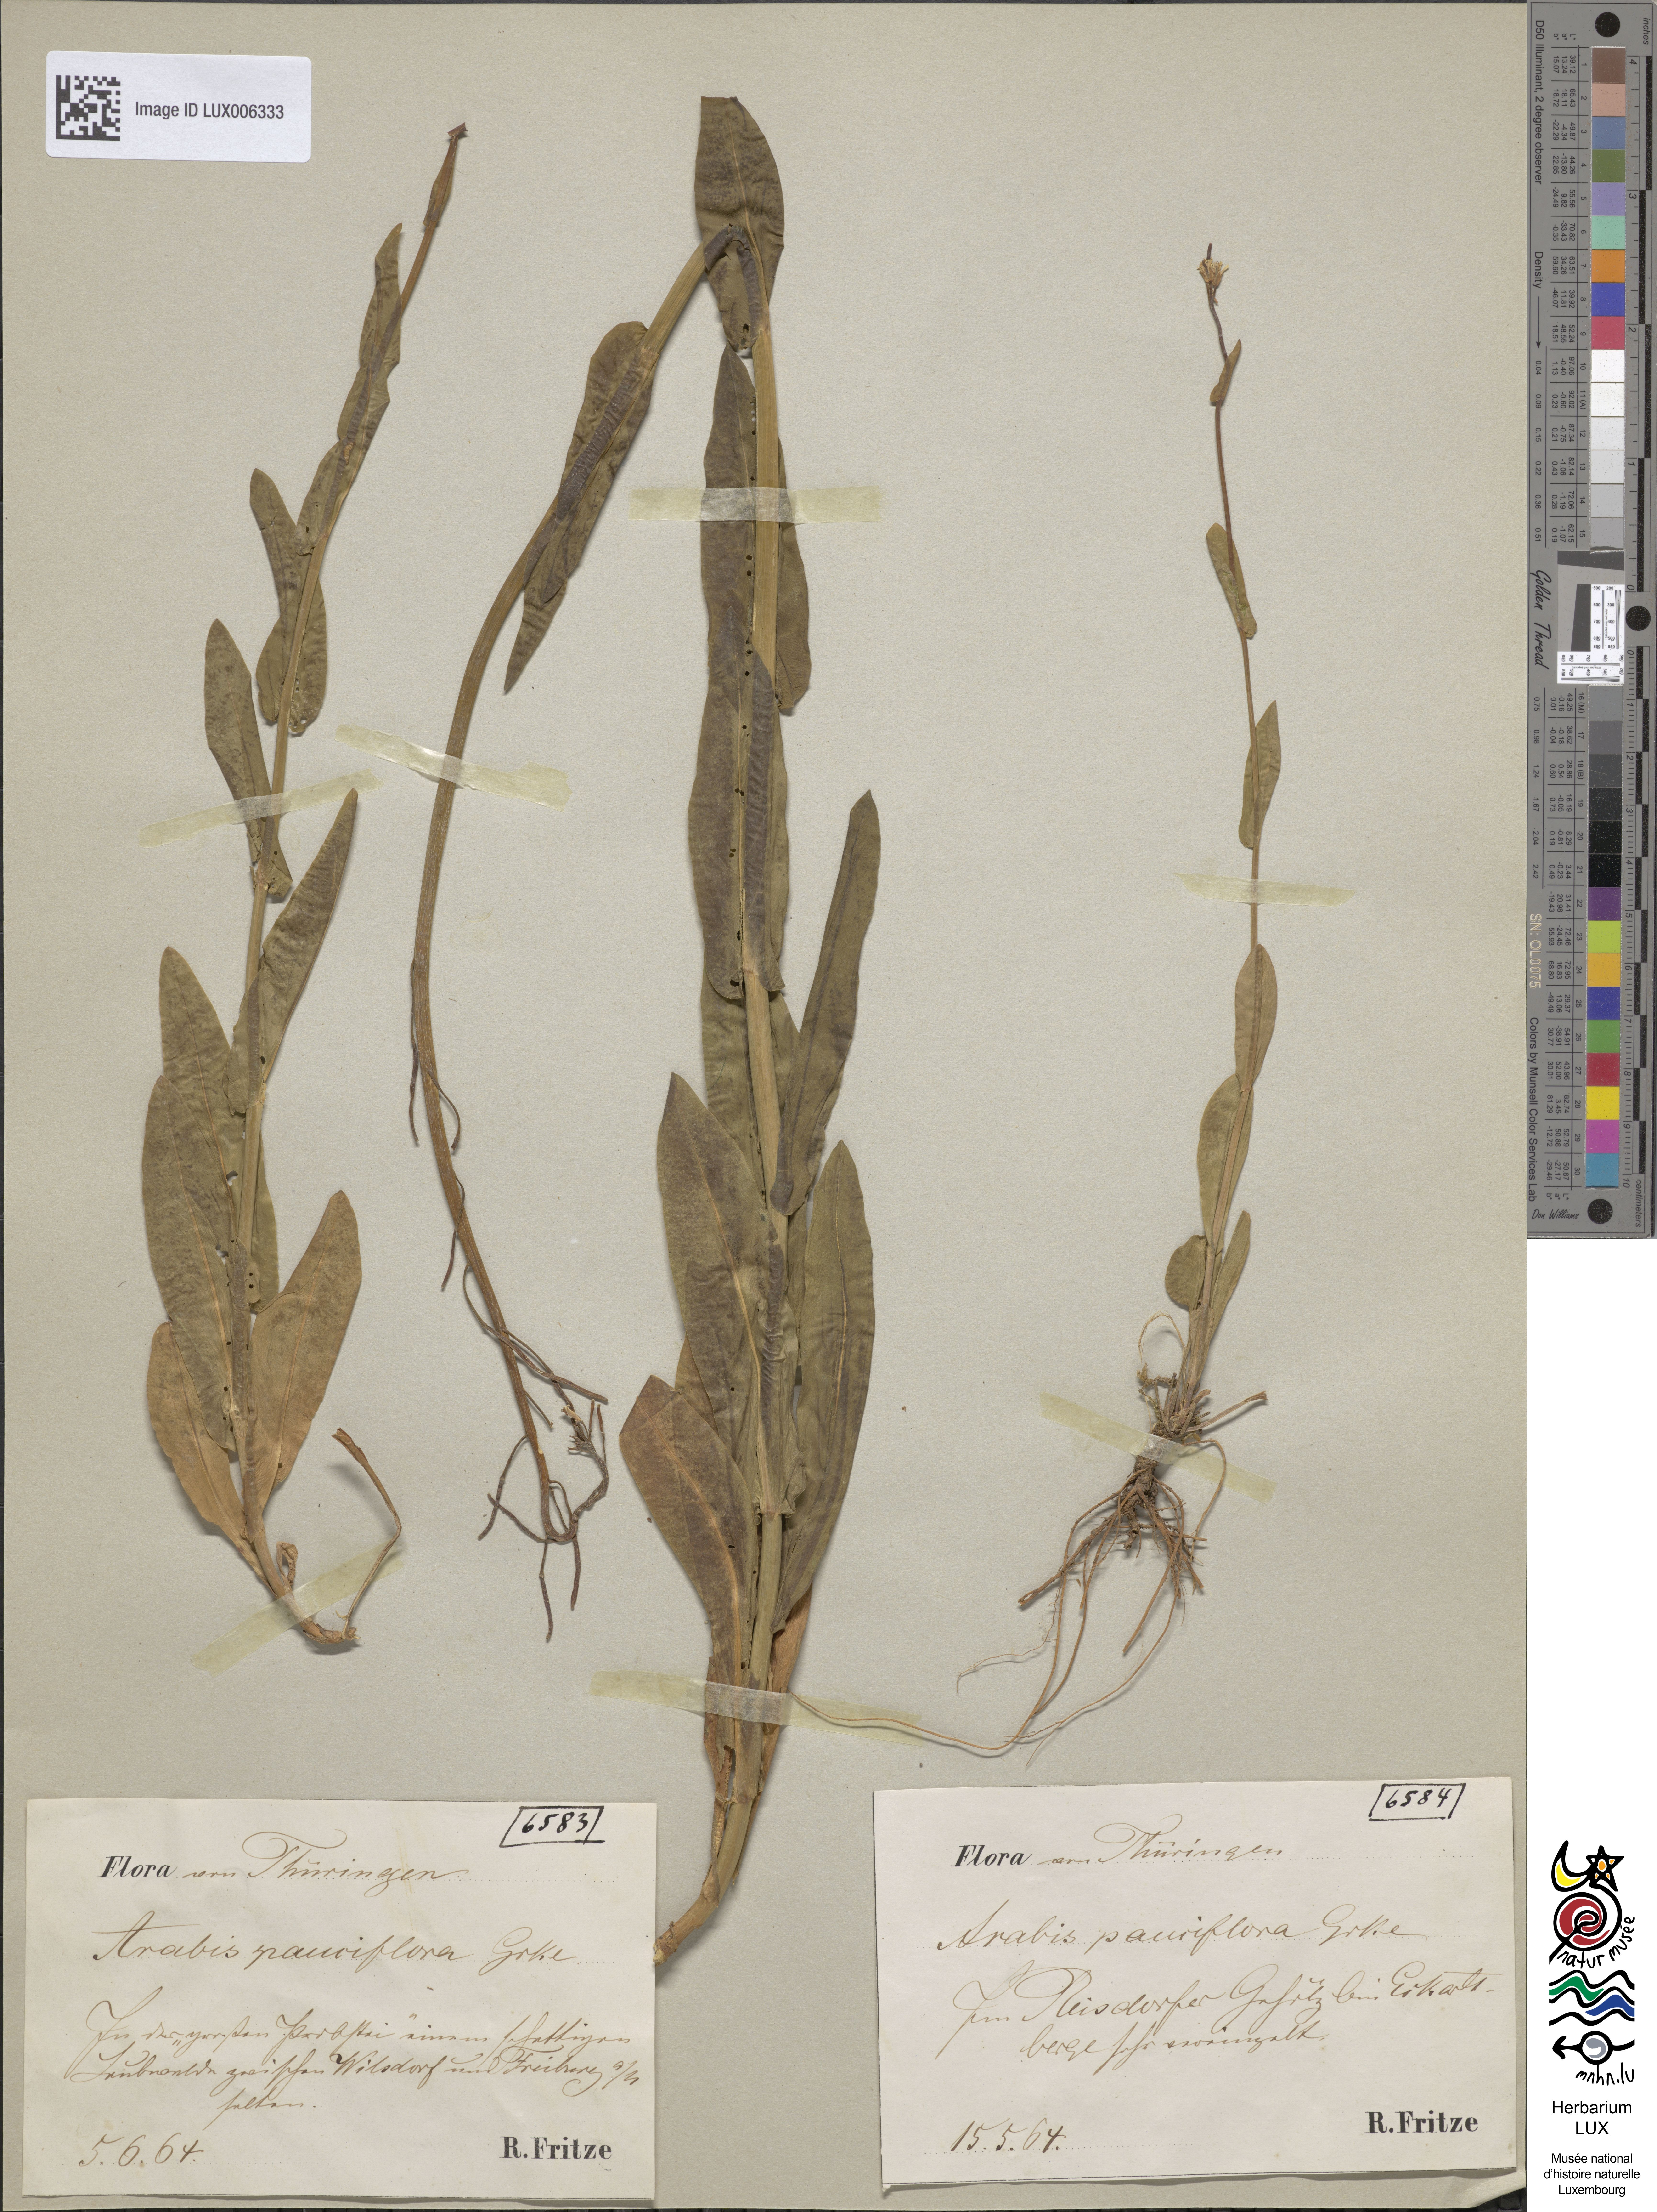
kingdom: Plantae
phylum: Tracheophyta
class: Magnoliopsida
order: Brassicales
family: Brassicaceae
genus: Fourraea
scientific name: Fourraea alpina
